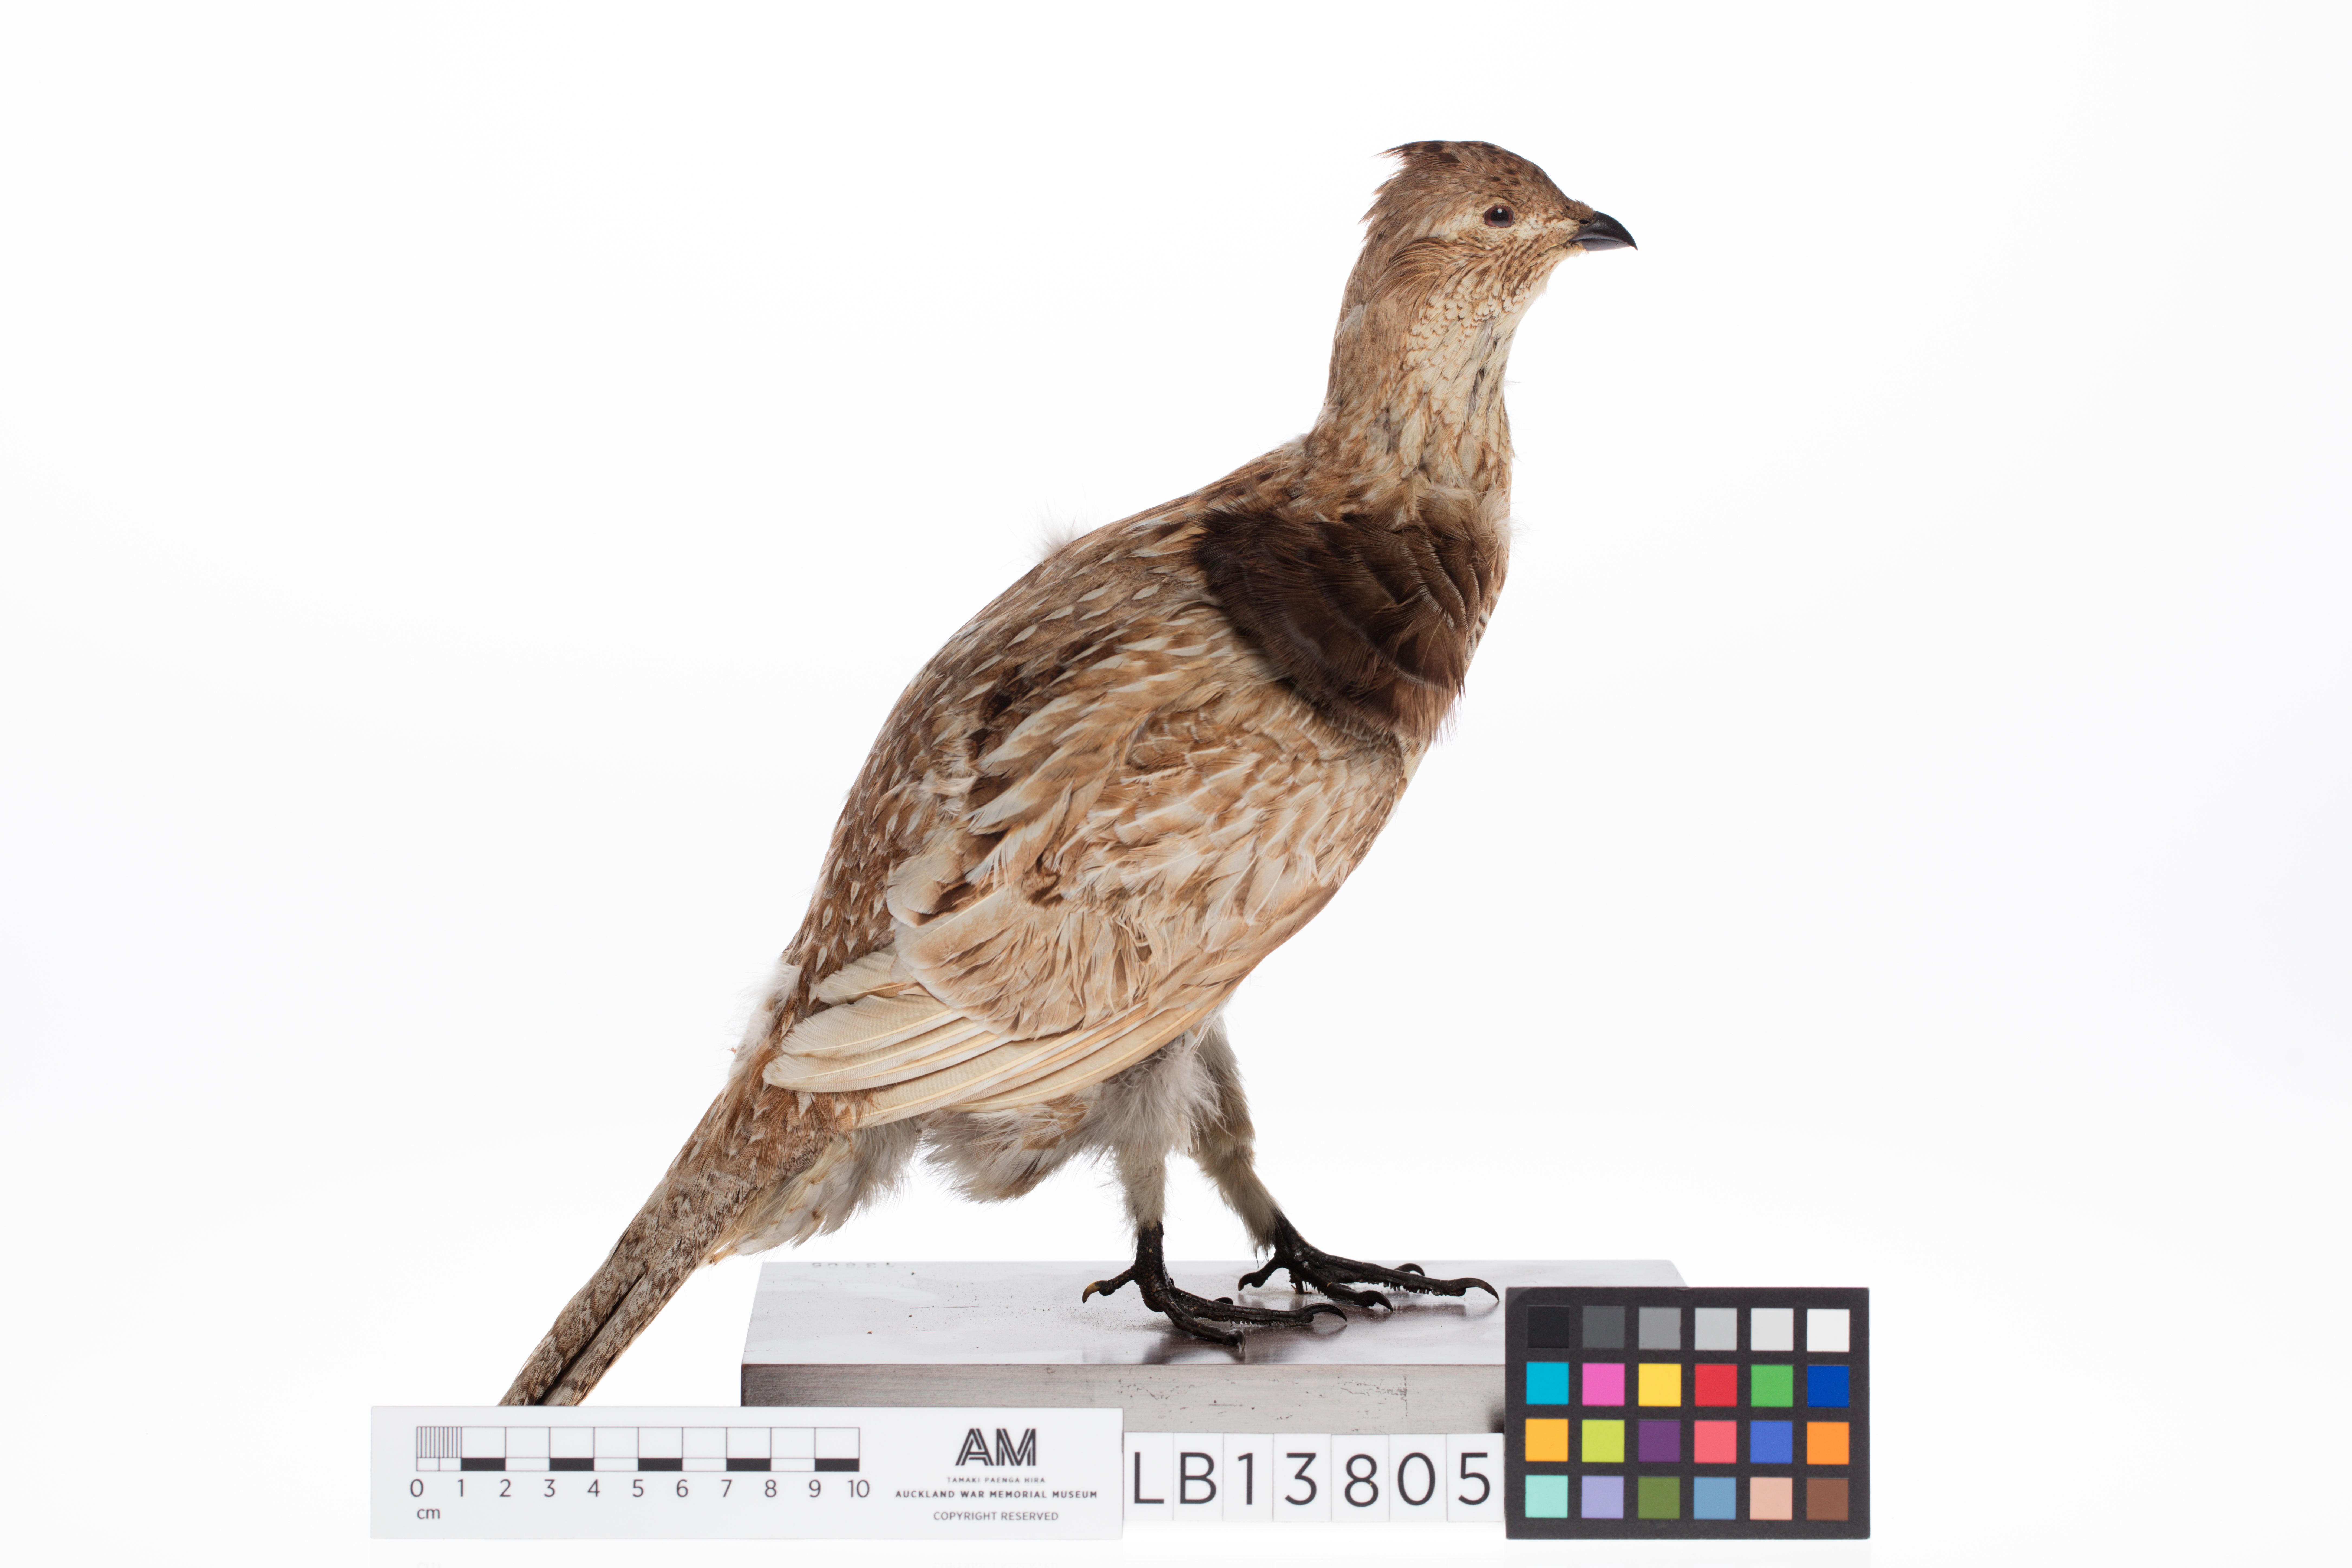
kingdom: Animalia
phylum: Chordata
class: Aves
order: Galliformes
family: Phasianidae
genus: Bonasa
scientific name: Bonasa umbellus
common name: Ruffed grouse
